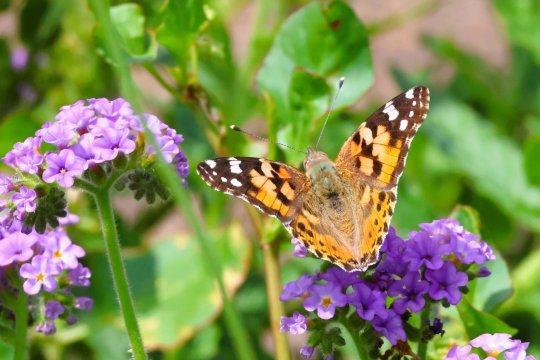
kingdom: Animalia
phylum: Arthropoda
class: Insecta
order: Lepidoptera
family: Nymphalidae
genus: Vanessa
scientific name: Vanessa cardui
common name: Painted Lady
